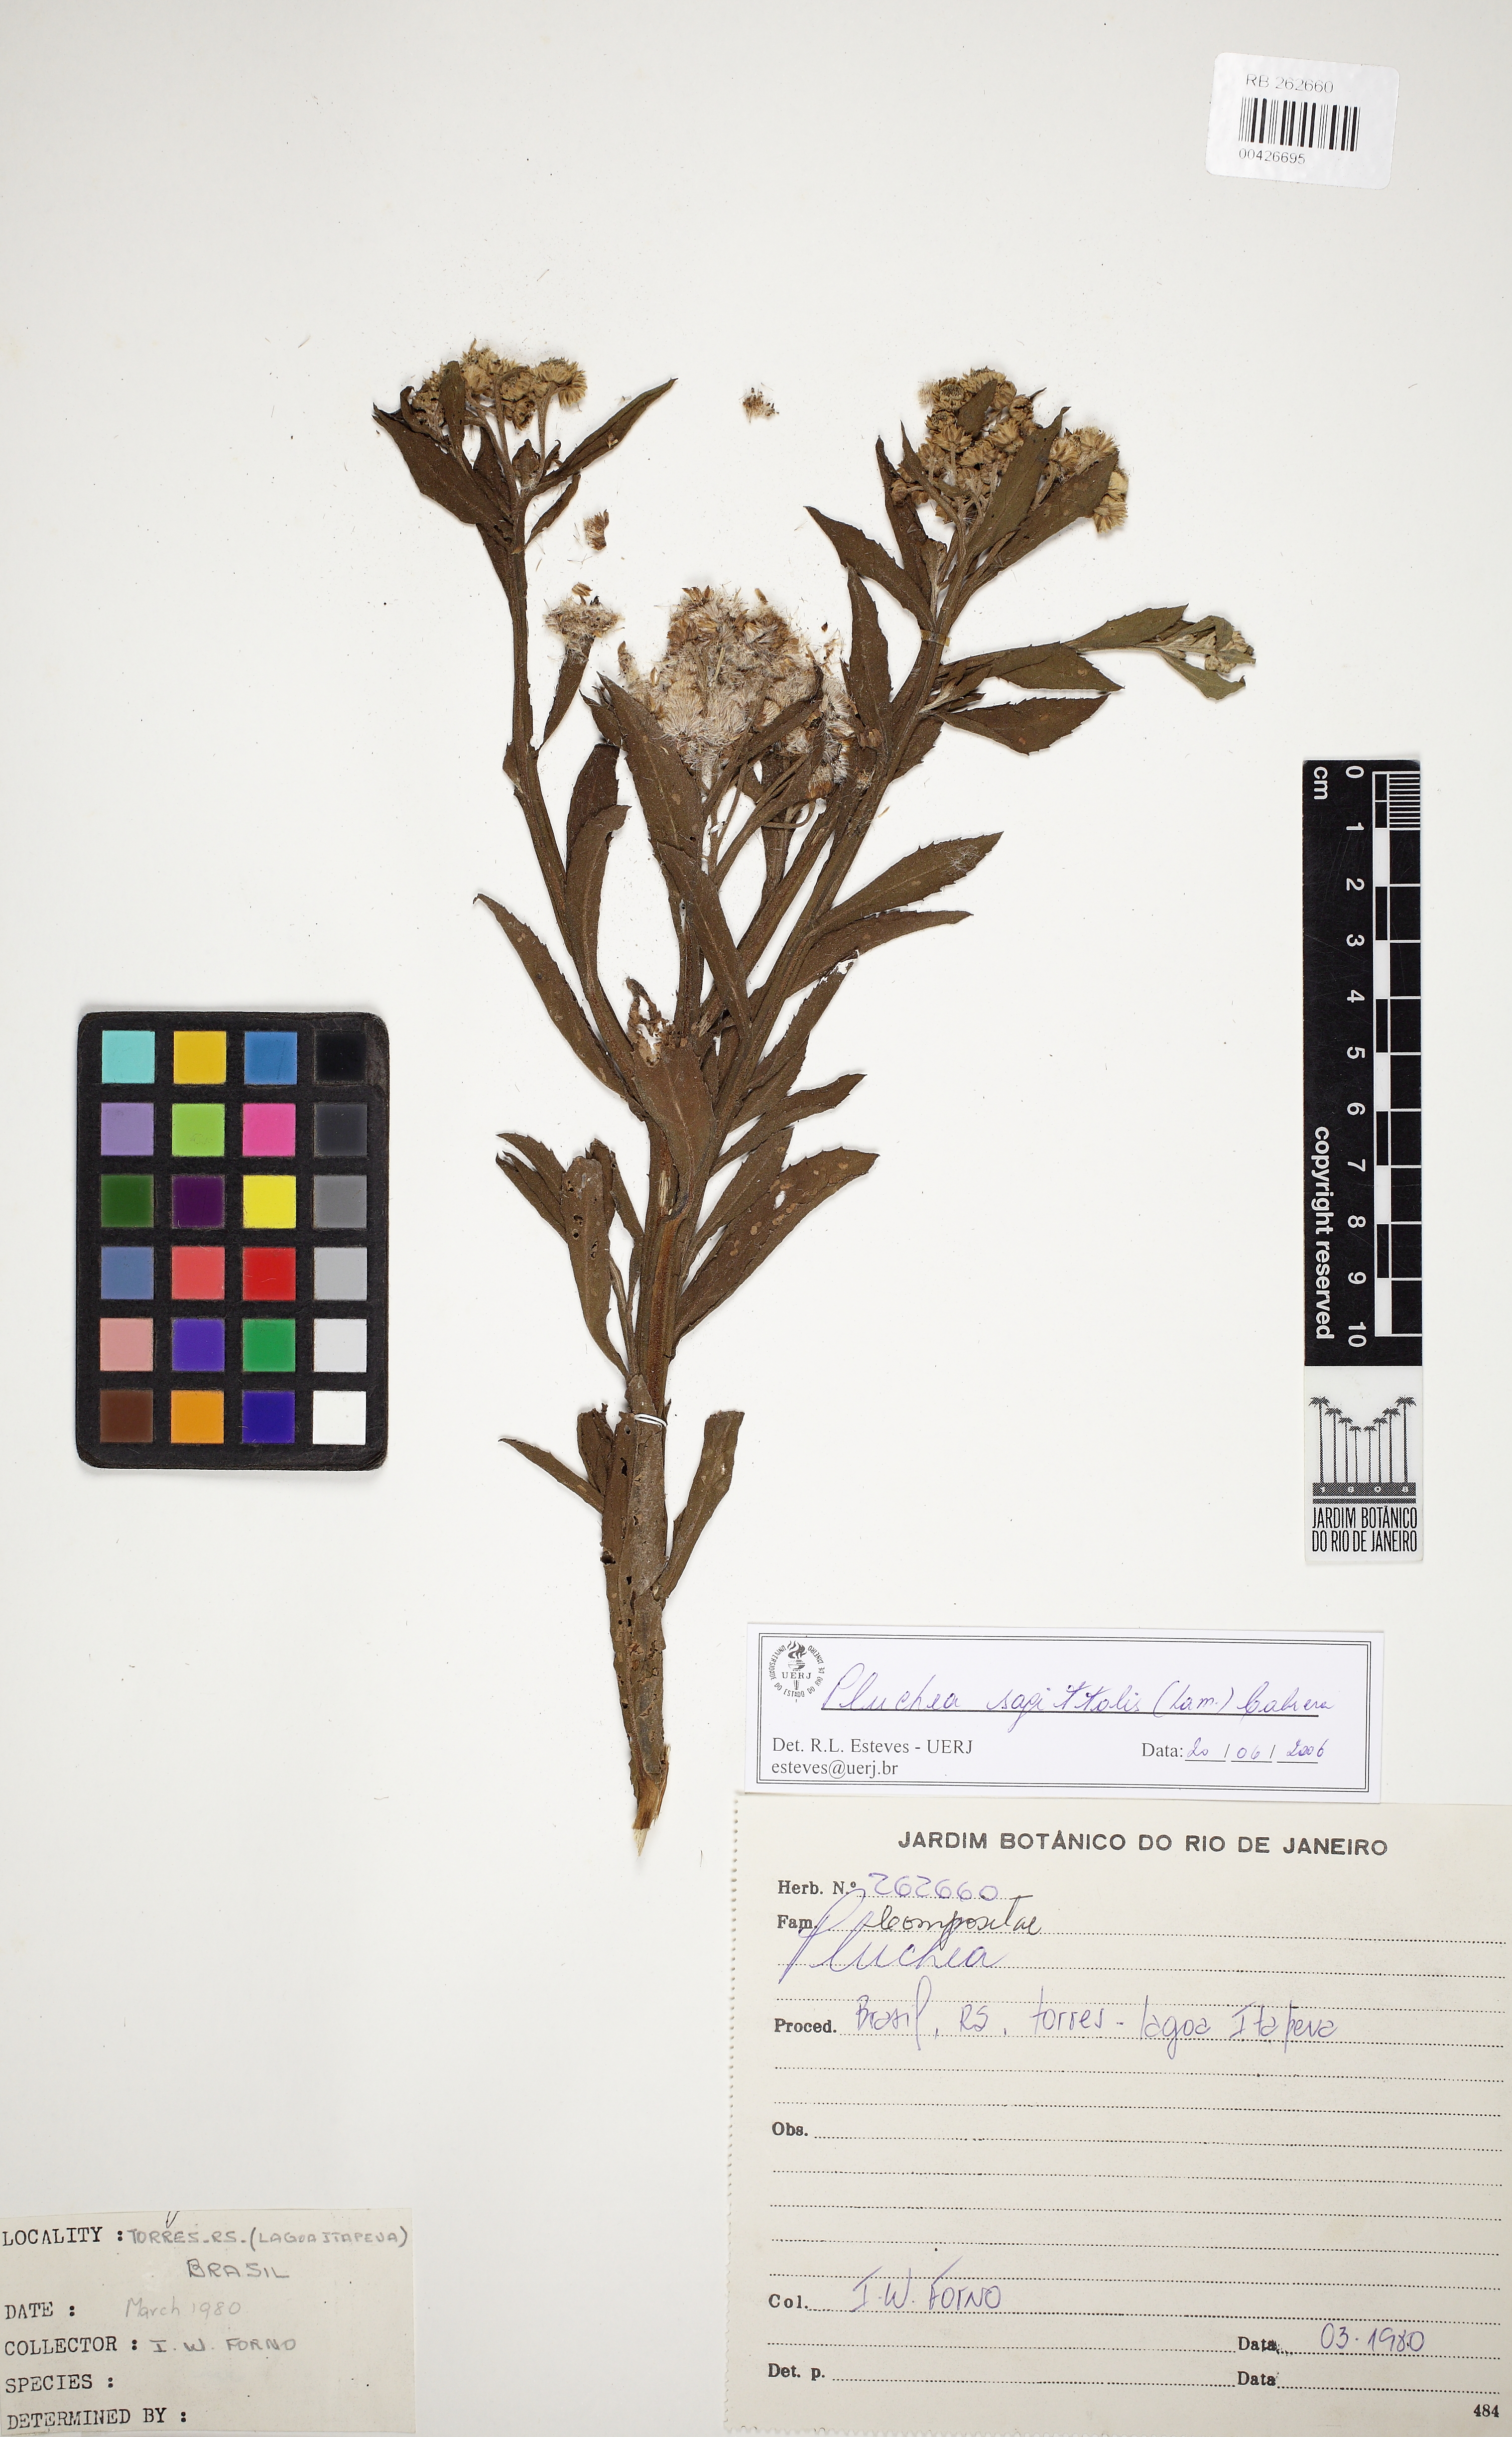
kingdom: Plantae
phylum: Tracheophyta
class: Magnoliopsida
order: Asterales
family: Asteraceae
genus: Pluchea
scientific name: Pluchea sagittalis
